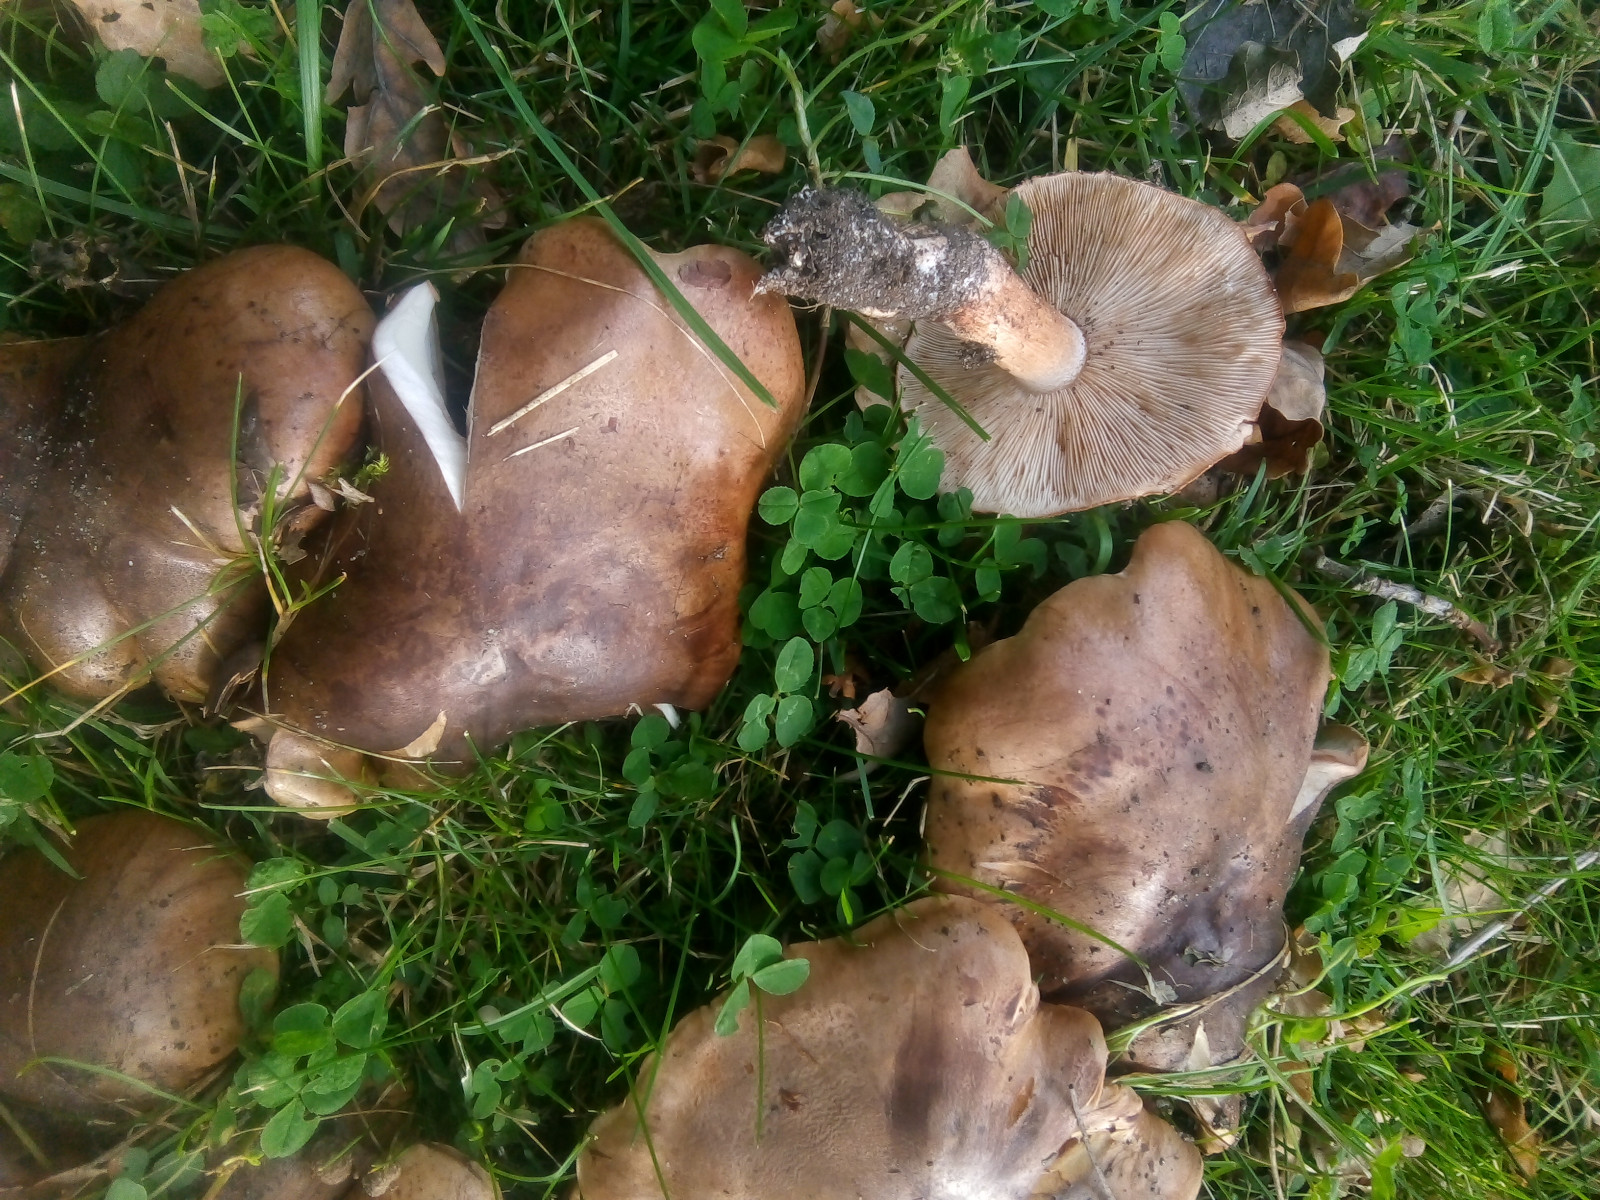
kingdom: Fungi
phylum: Basidiomycota
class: Agaricomycetes
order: Agaricales
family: Tricholomataceae
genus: Tricholoma
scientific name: Tricholoma populinum
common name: poppel-ridderhat
